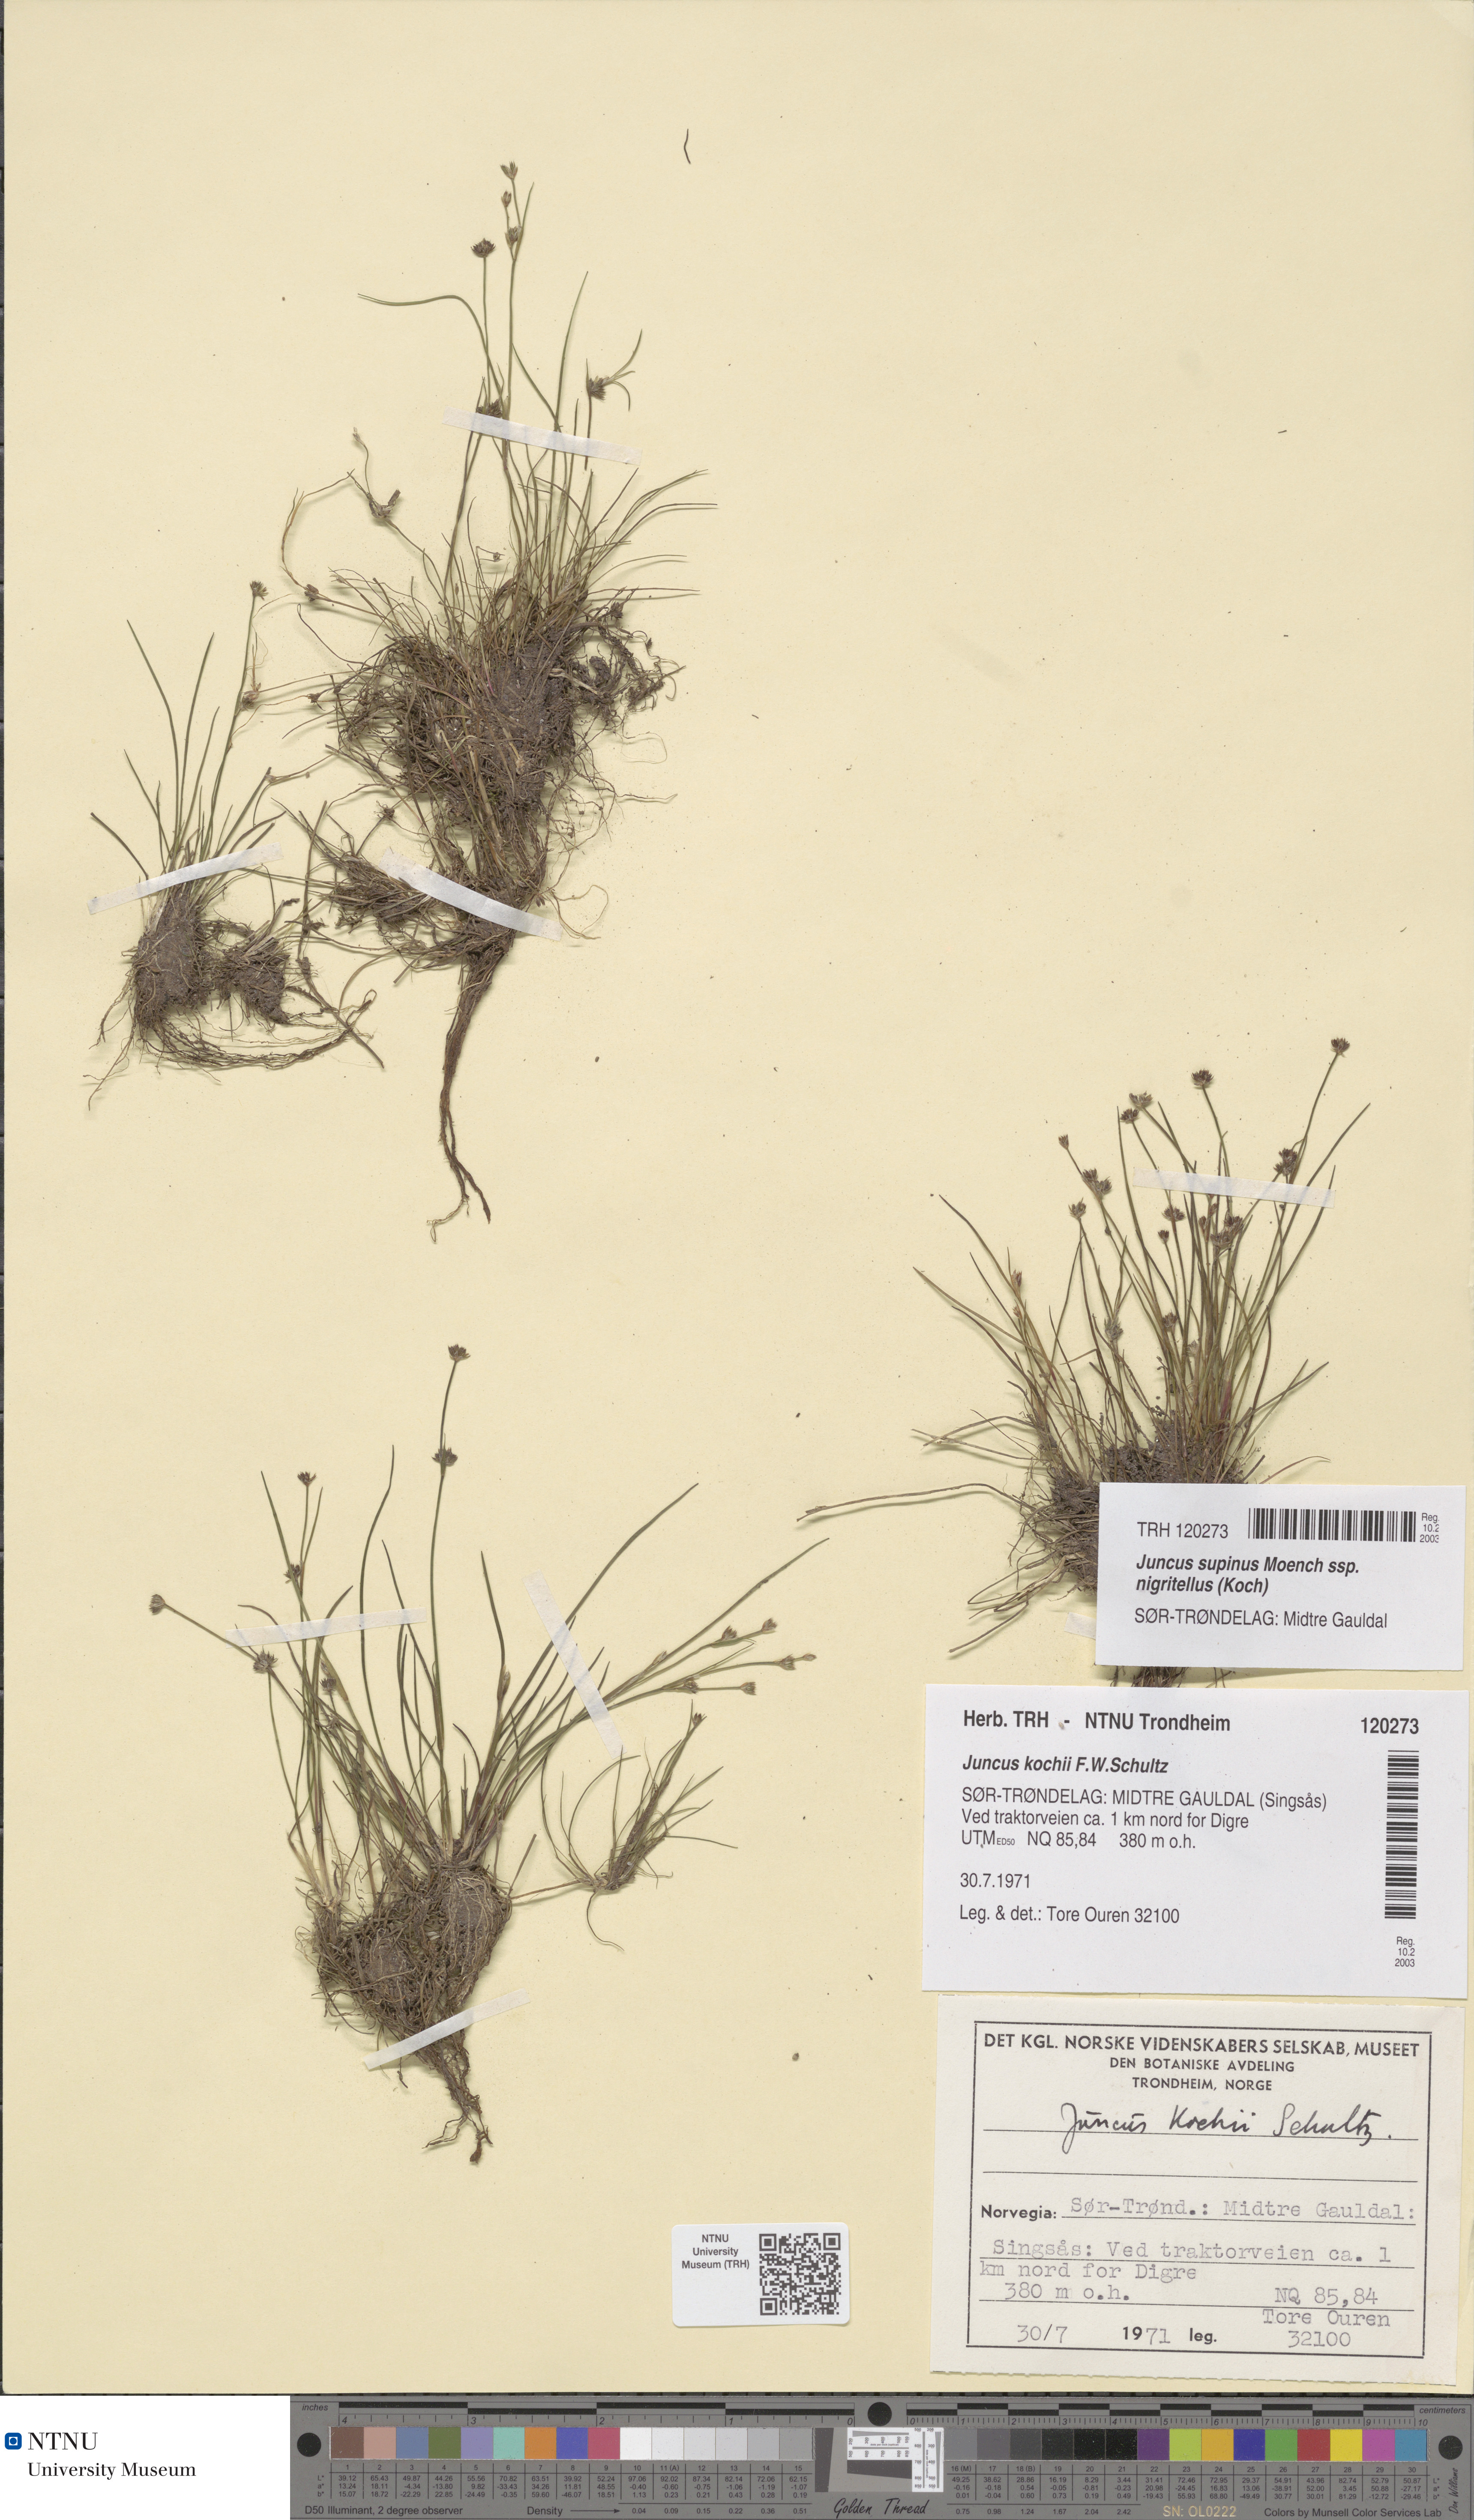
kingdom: Plantae
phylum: Tracheophyta
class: Liliopsida
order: Poales
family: Juncaceae
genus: Juncus
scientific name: Juncus bulbosus
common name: Bulbous rush
